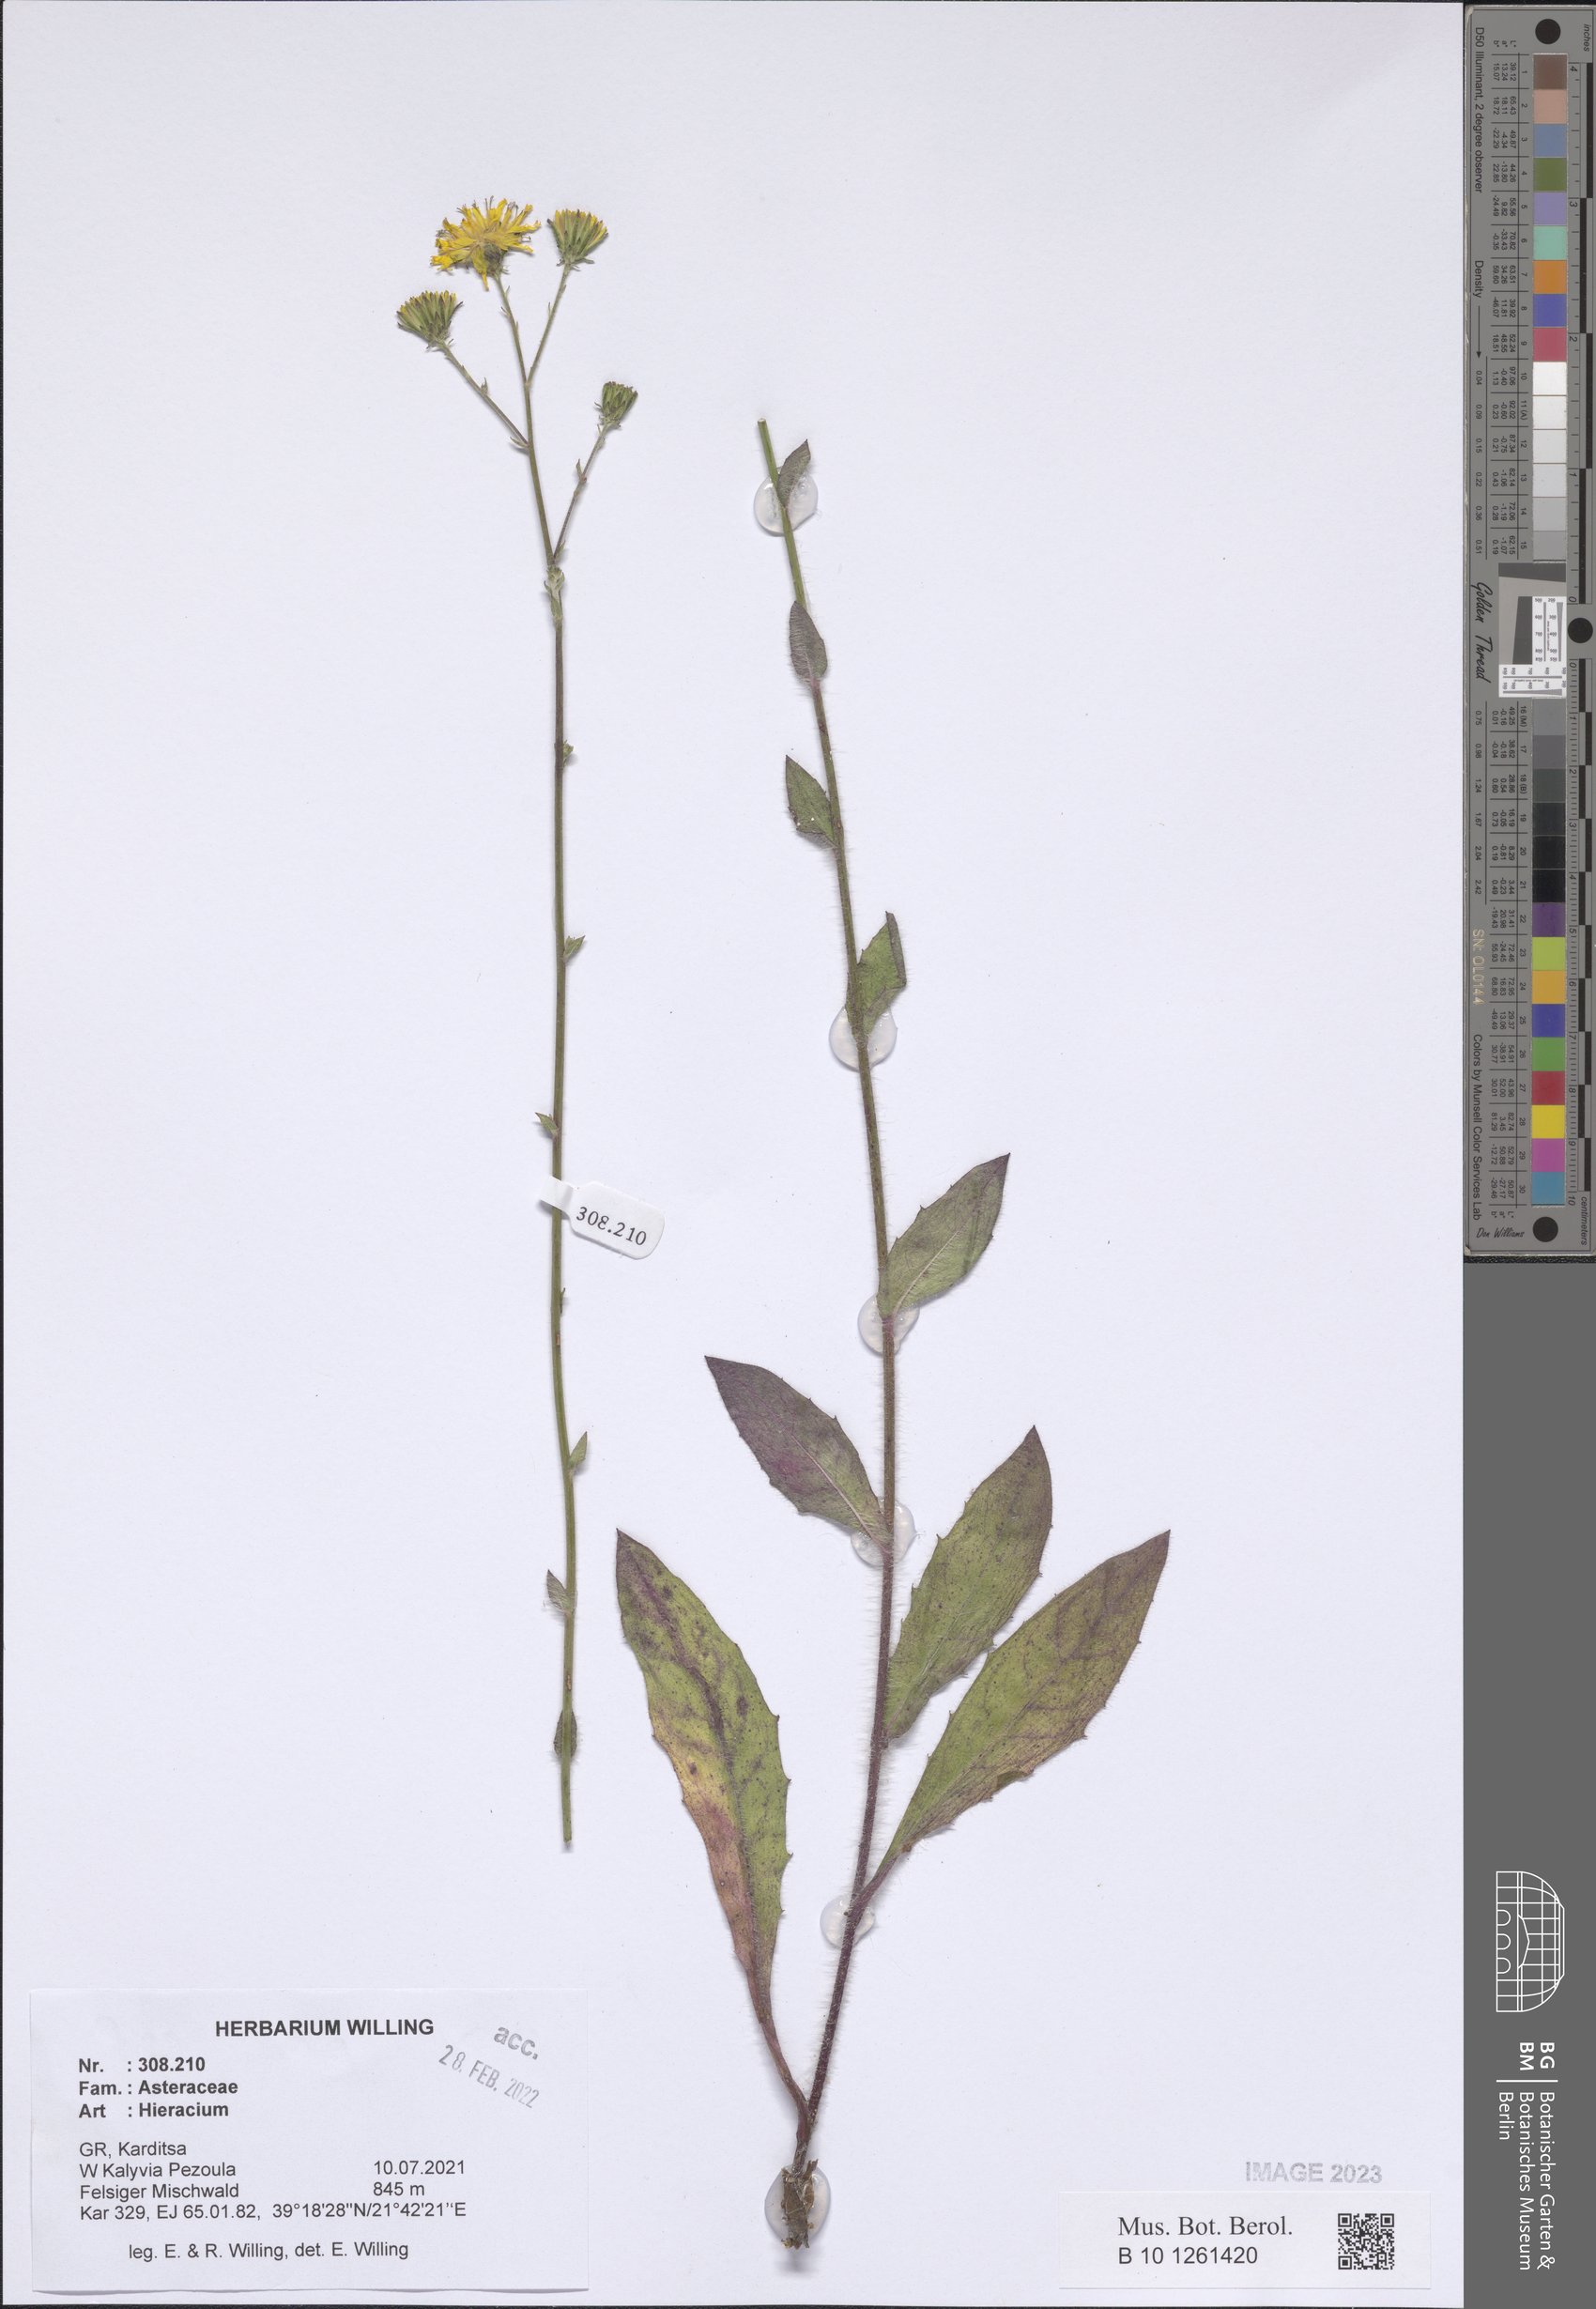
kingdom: Plantae
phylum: Tracheophyta
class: Magnoliopsida
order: Asterales
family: Asteraceae
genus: Hieracium
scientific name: Hieracium
